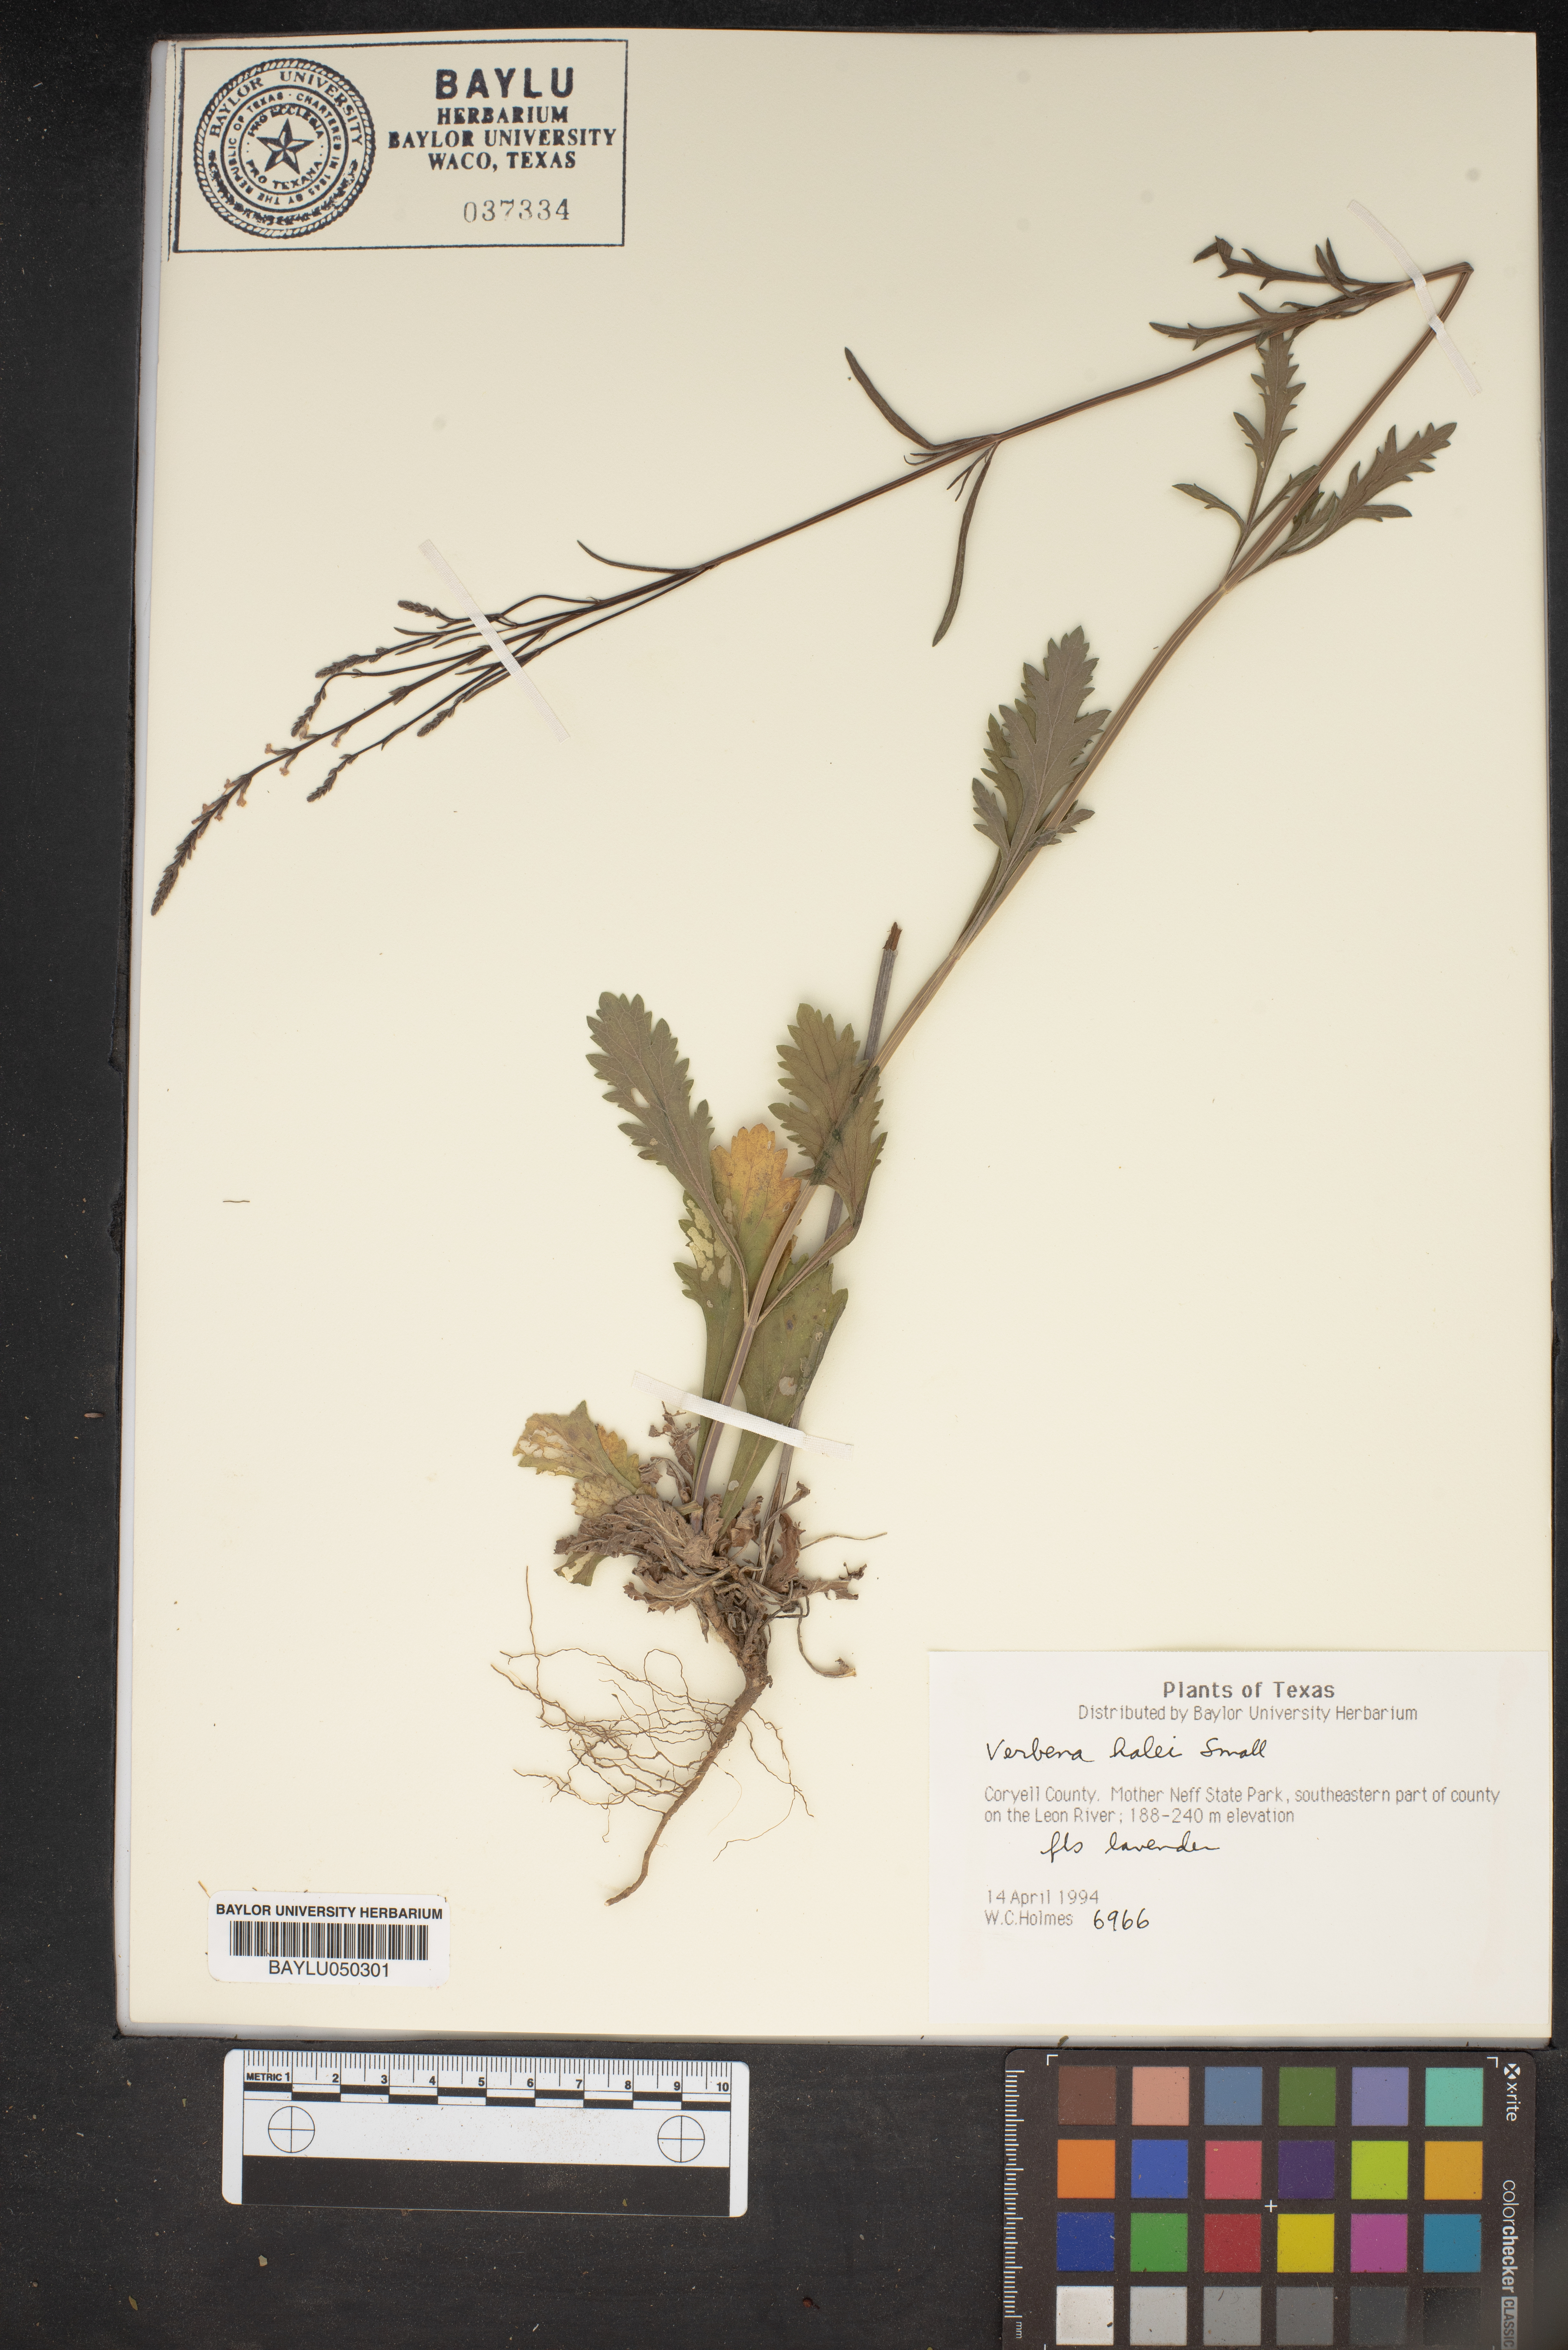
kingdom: Plantae
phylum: Tracheophyta
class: Magnoliopsida
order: Lamiales
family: Verbenaceae
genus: Verbena
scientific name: Verbena halei
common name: Texas vervain
